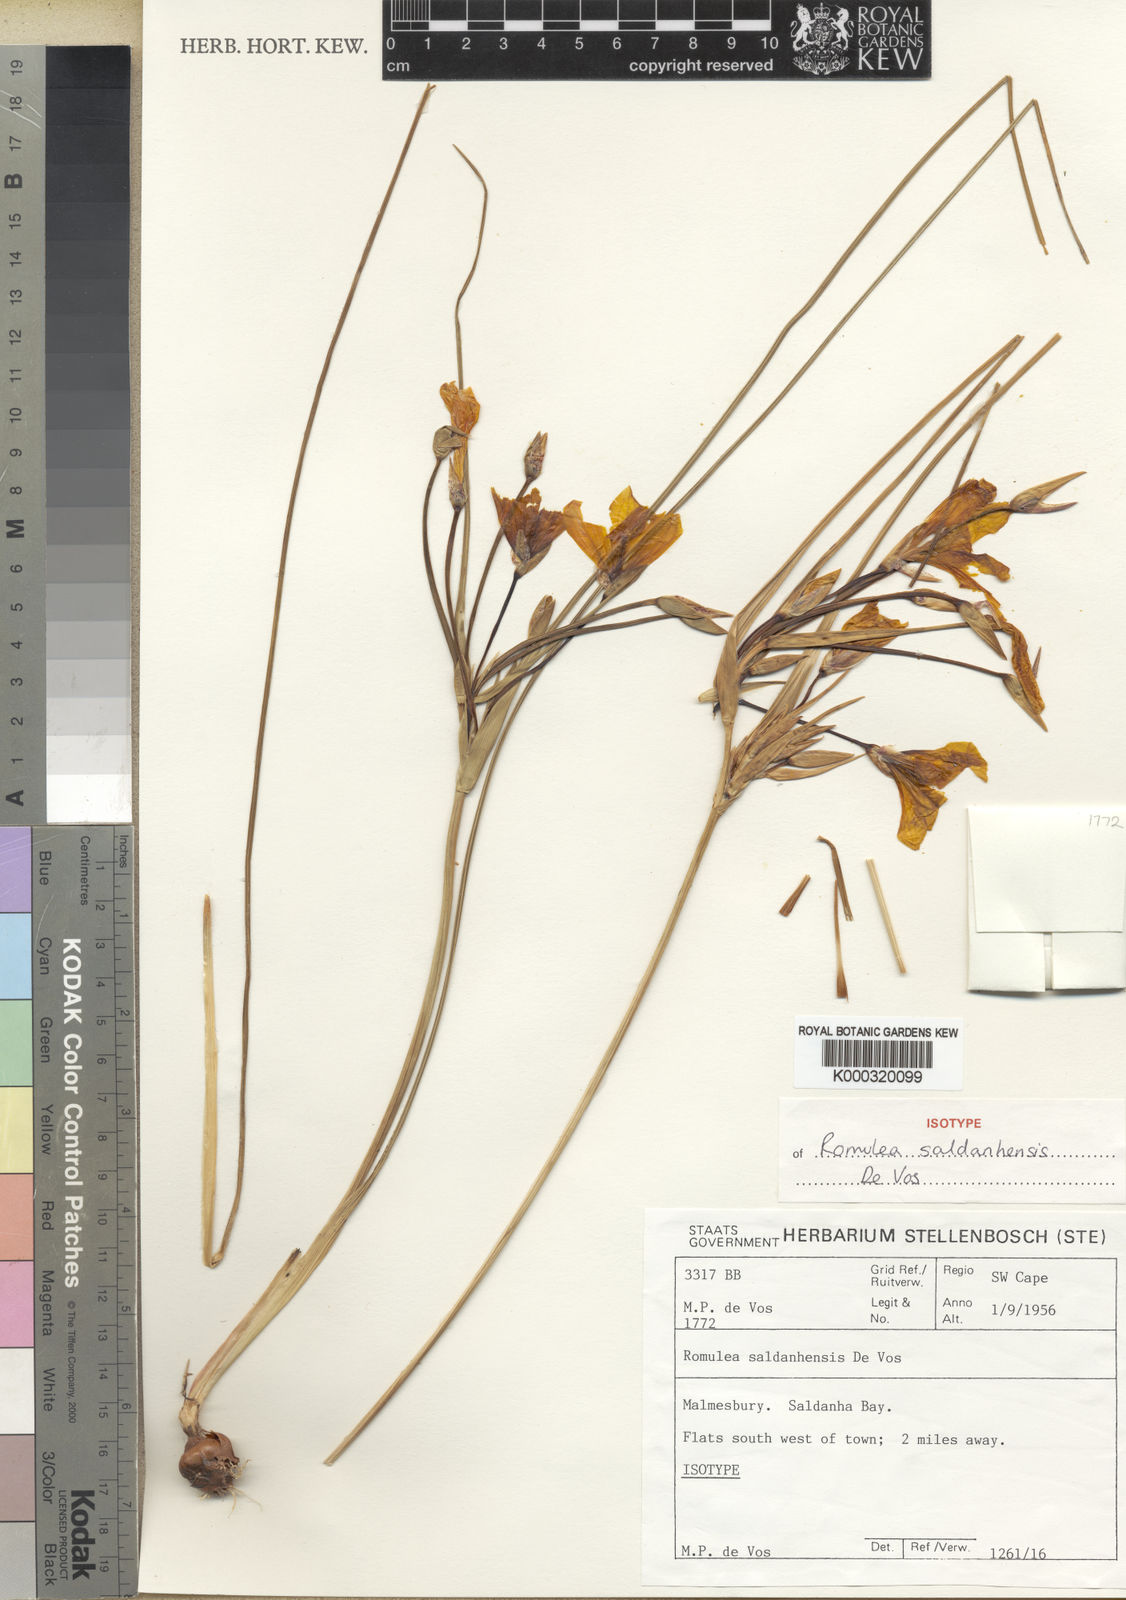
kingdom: Plantae
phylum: Tracheophyta
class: Liliopsida
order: Asparagales
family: Iridaceae
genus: Romulea
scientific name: Romulea saldanhensis
